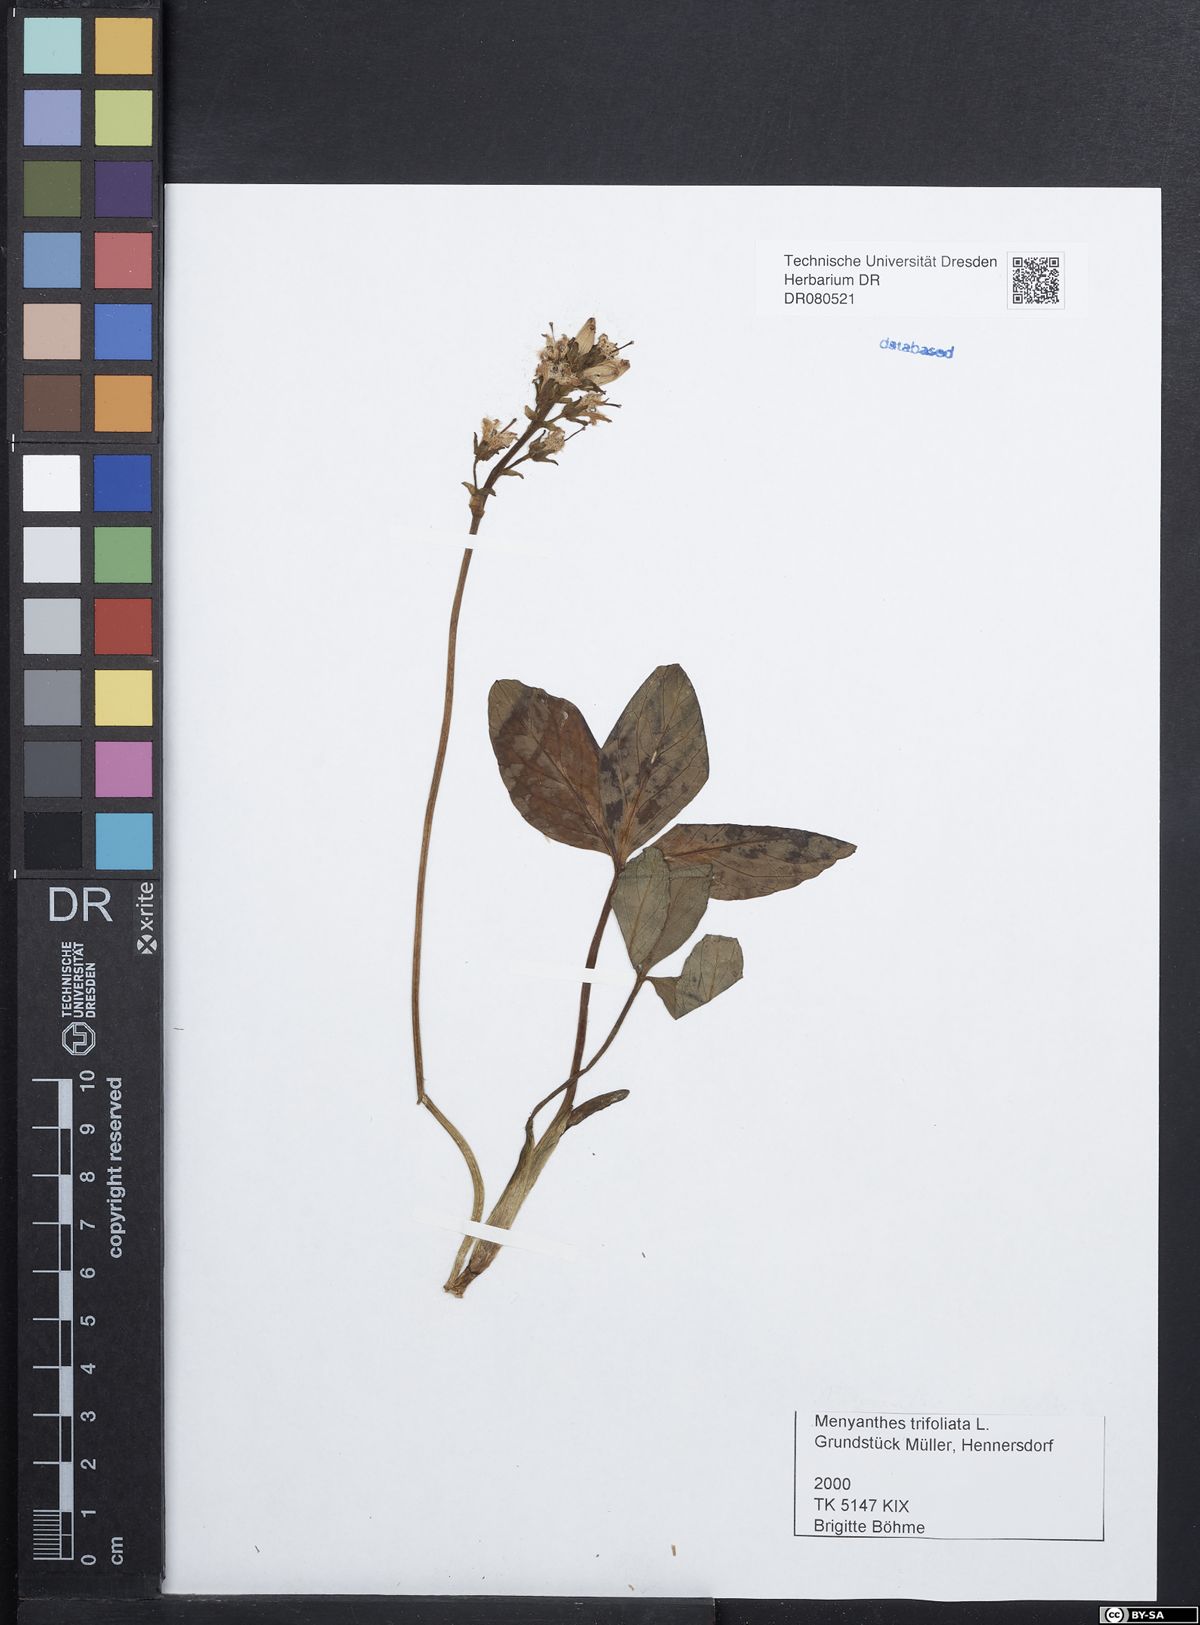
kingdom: Plantae
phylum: Tracheophyta
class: Magnoliopsida
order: Asterales
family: Menyanthaceae
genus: Menyanthes
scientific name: Menyanthes trifoliata
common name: Bogbean
